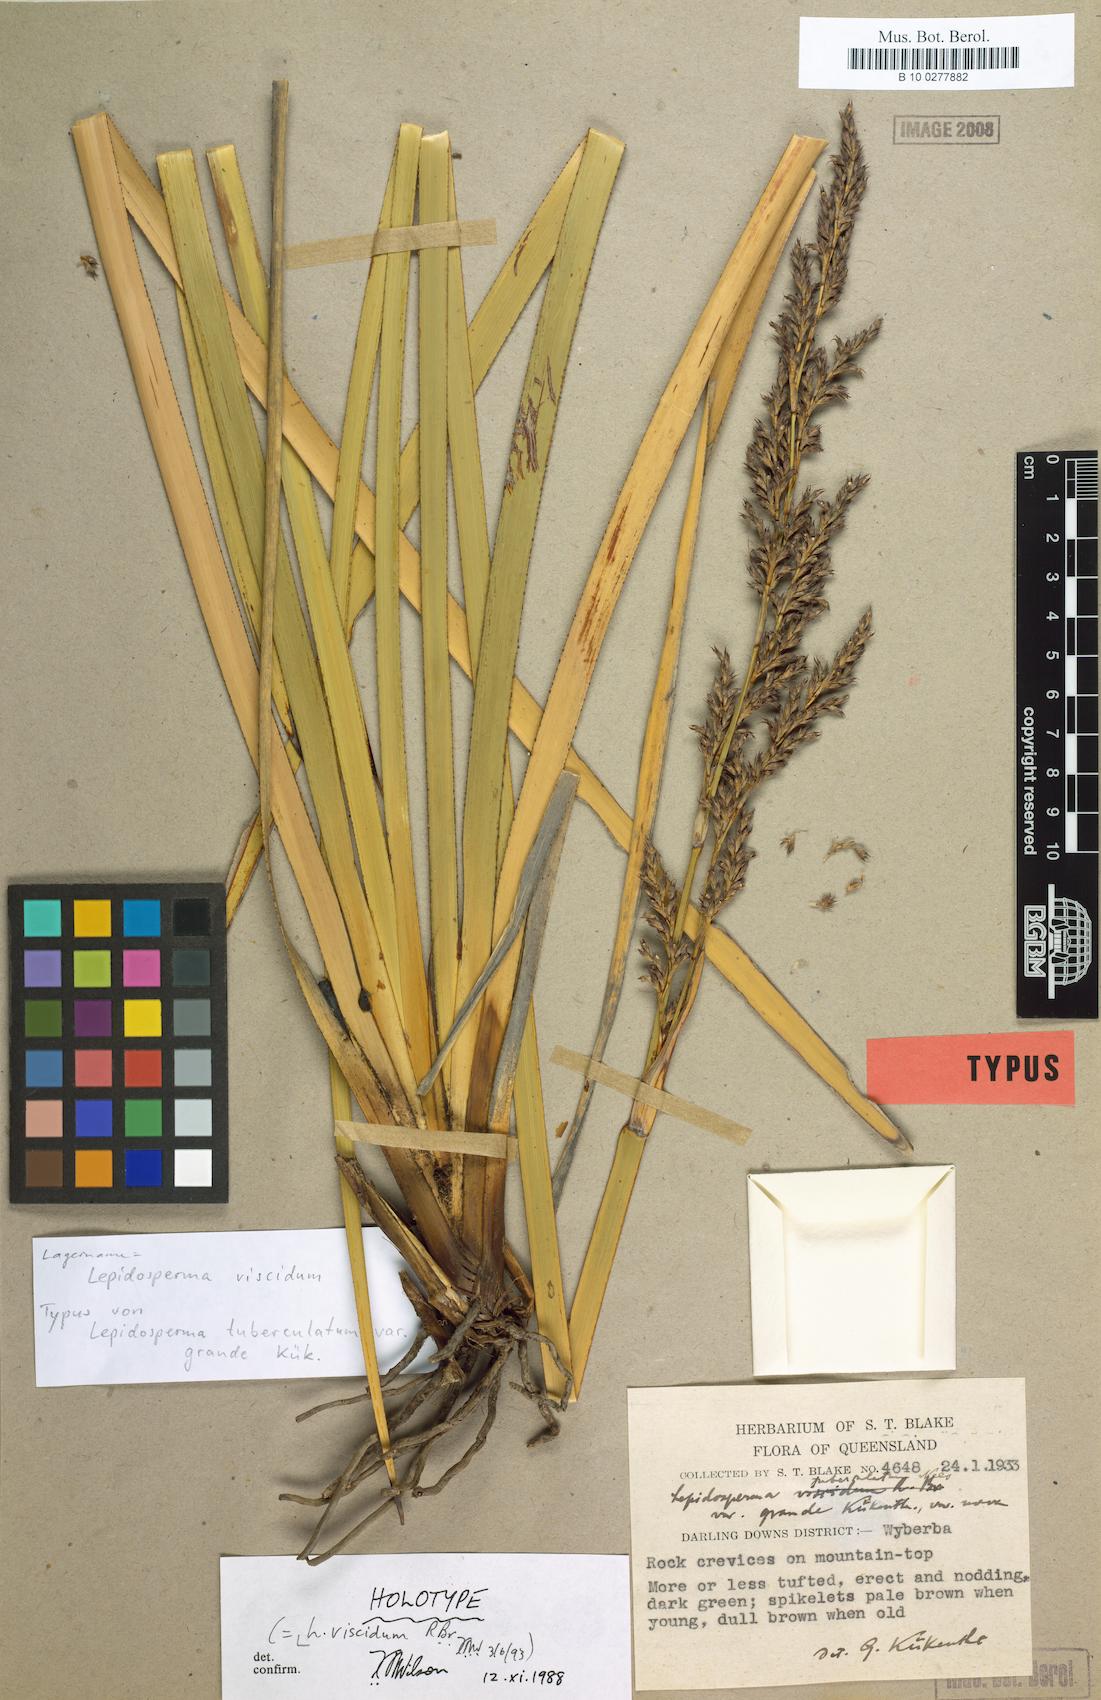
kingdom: Plantae
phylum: Tracheophyta
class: Liliopsida
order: Poales
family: Cyperaceae
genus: Lepidosperma
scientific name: Lepidosperma viscidum
